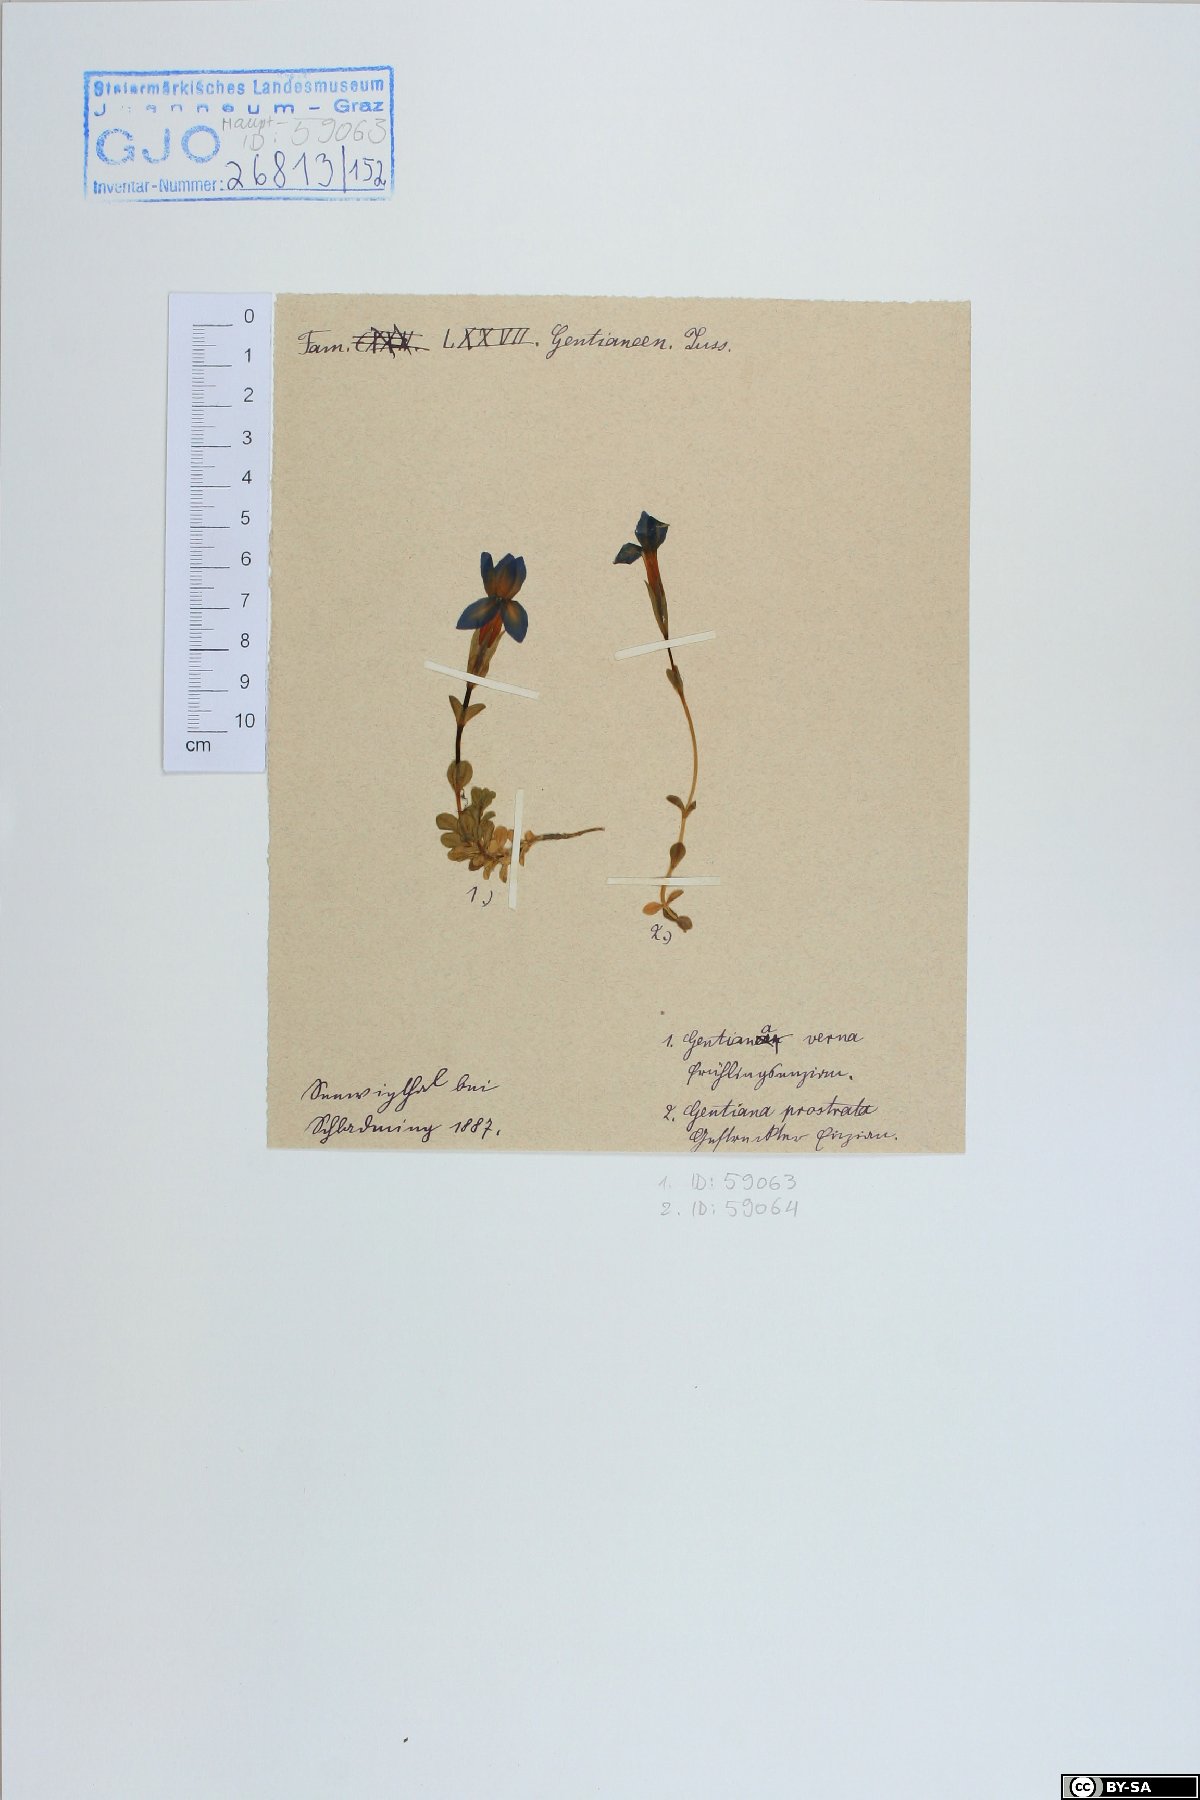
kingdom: Plantae
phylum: Tracheophyta
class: Magnoliopsida
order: Gentianales
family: Gentianaceae
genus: Gentiana
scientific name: Gentiana bavarica
